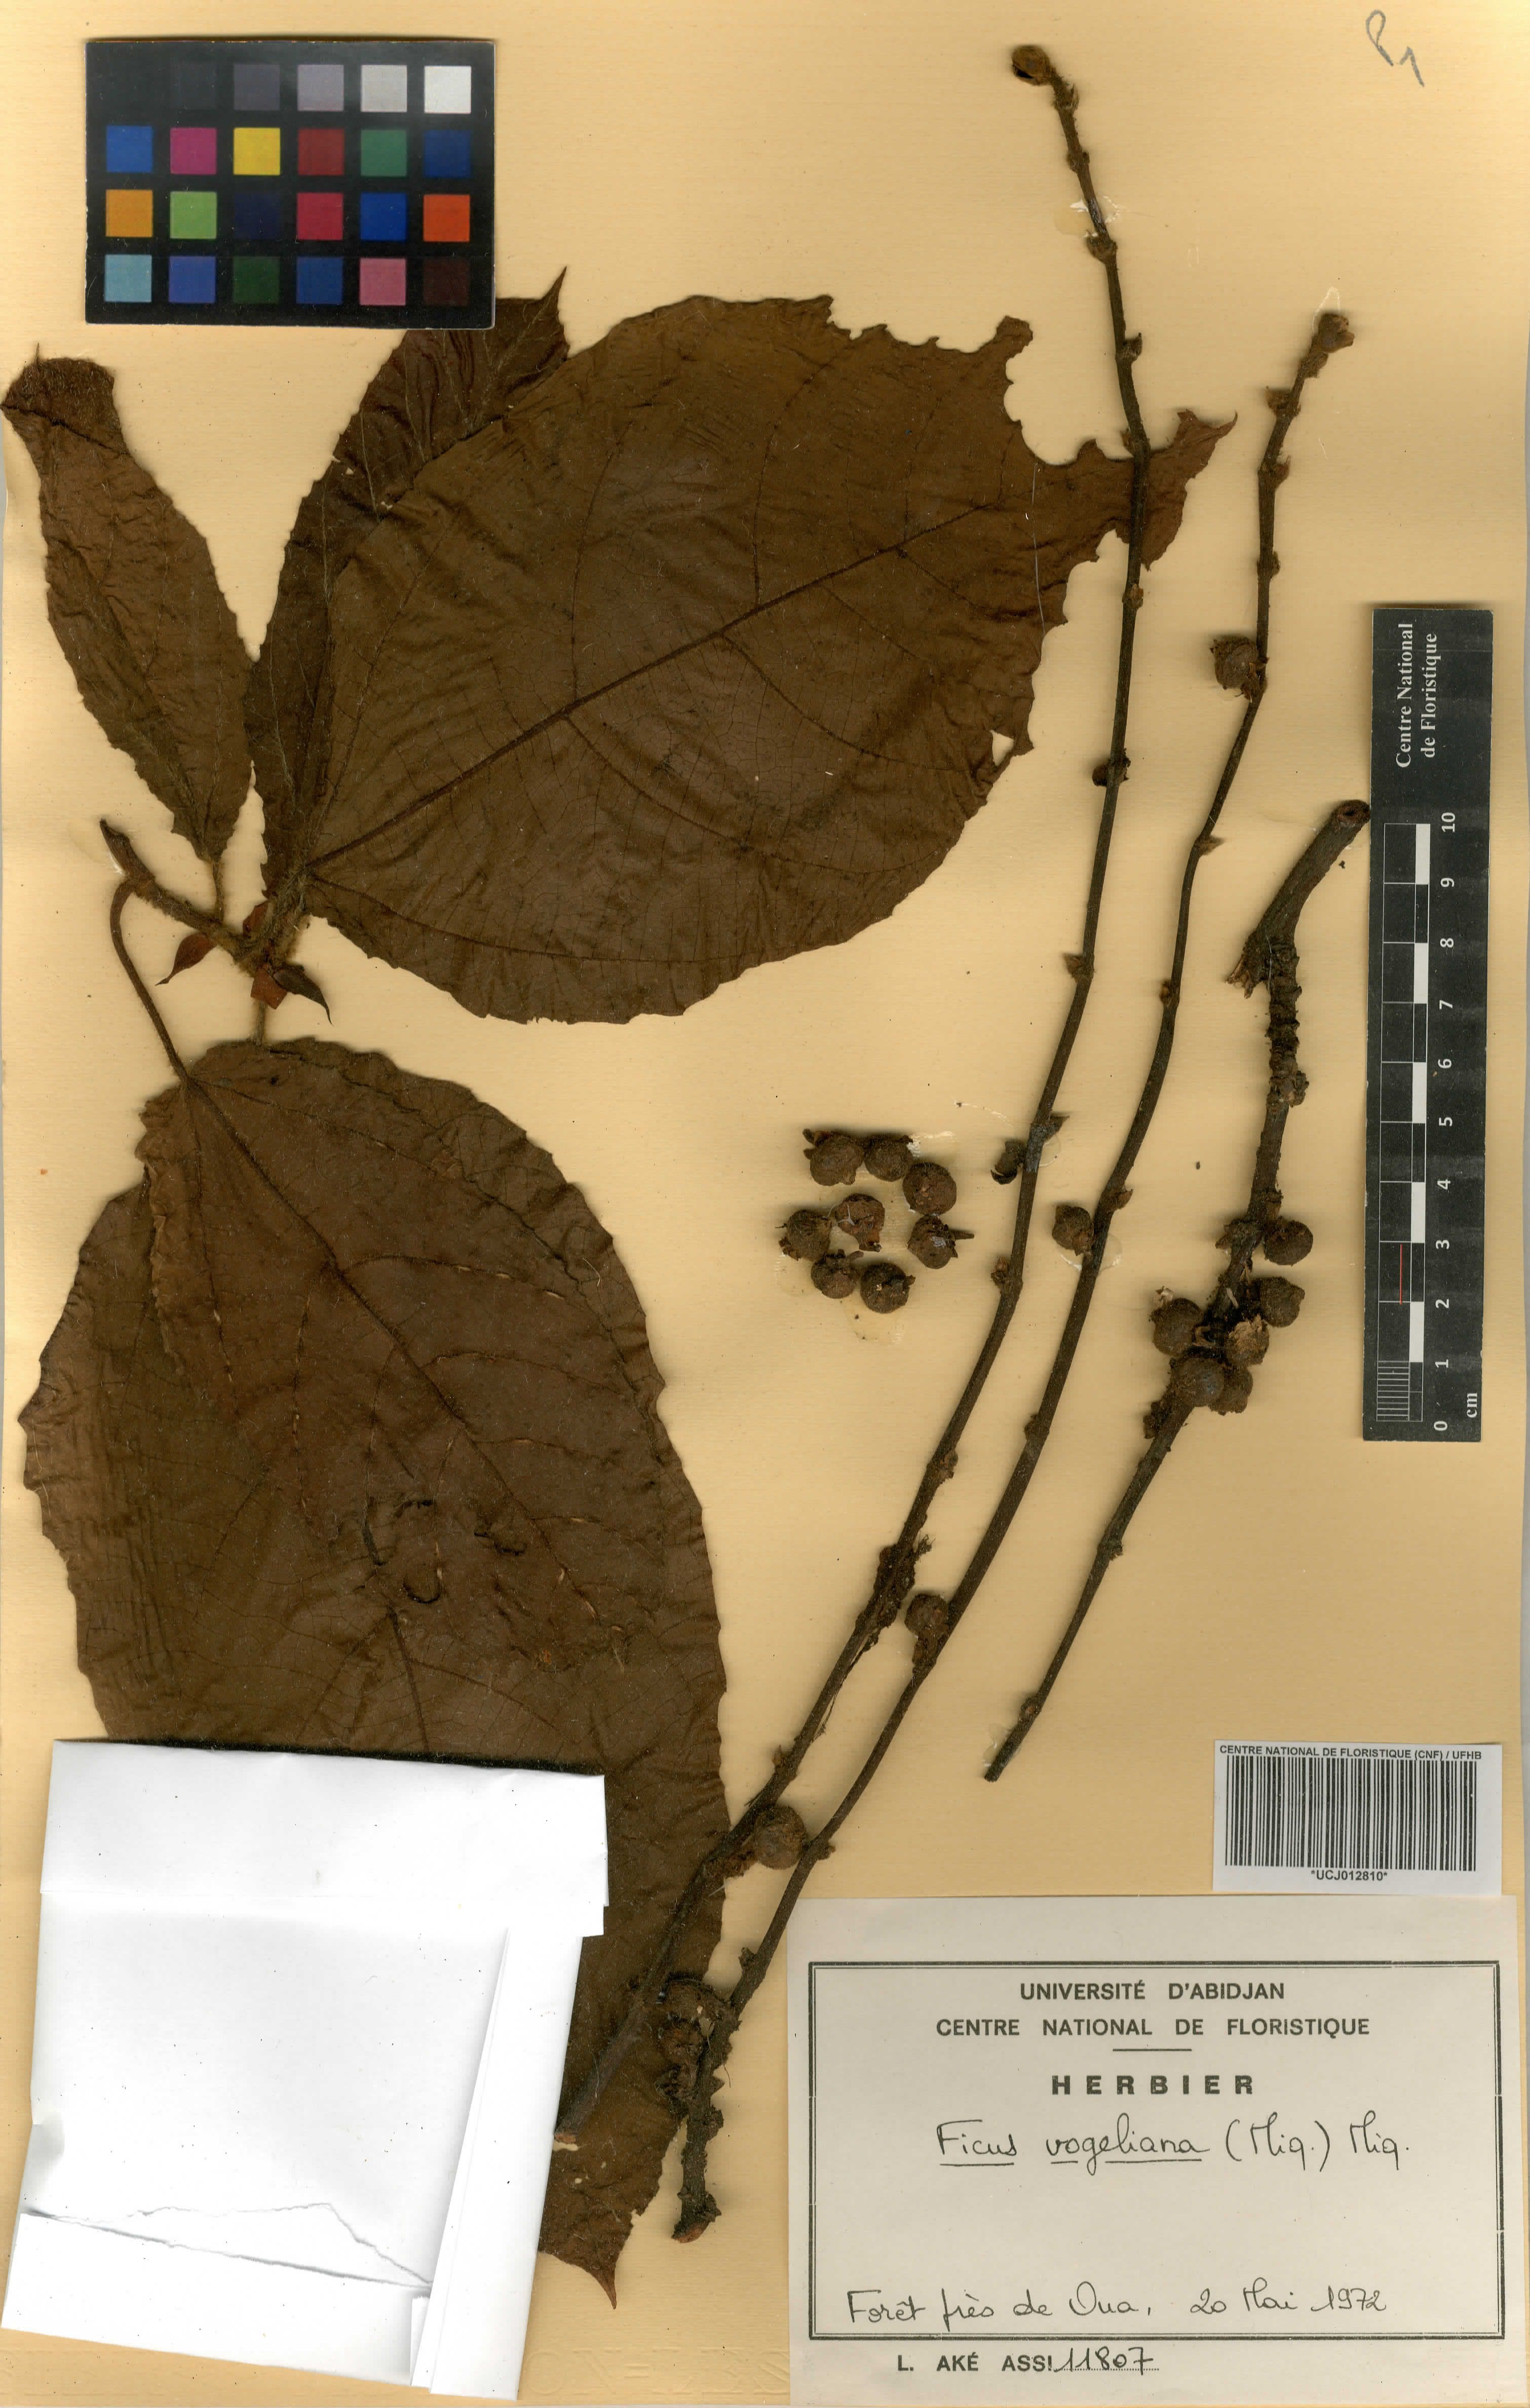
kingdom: Plantae
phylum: Tracheophyta
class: Magnoliopsida
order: Rosales
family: Moraceae
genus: Ficus
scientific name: Ficus vogeliana
